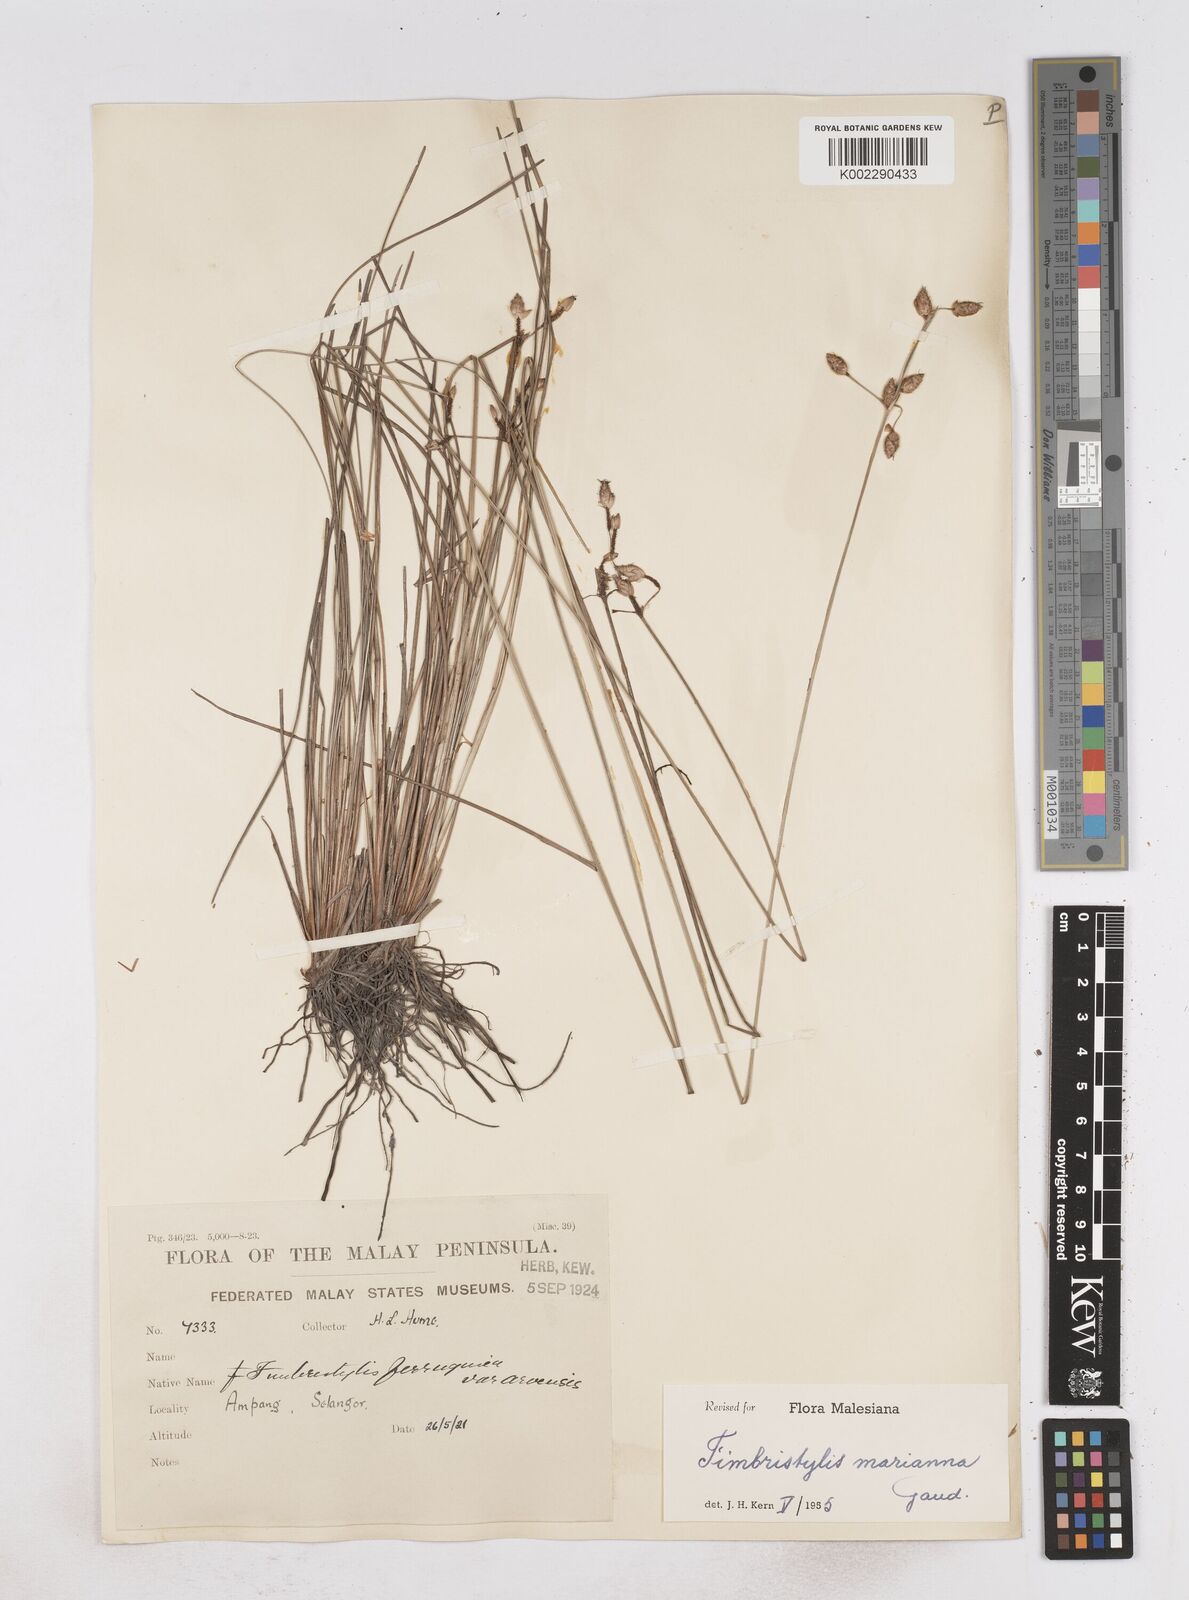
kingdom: Plantae
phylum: Tracheophyta
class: Liliopsida
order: Poales
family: Cyperaceae
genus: Fimbristylis
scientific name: Fimbristylis tristachya
